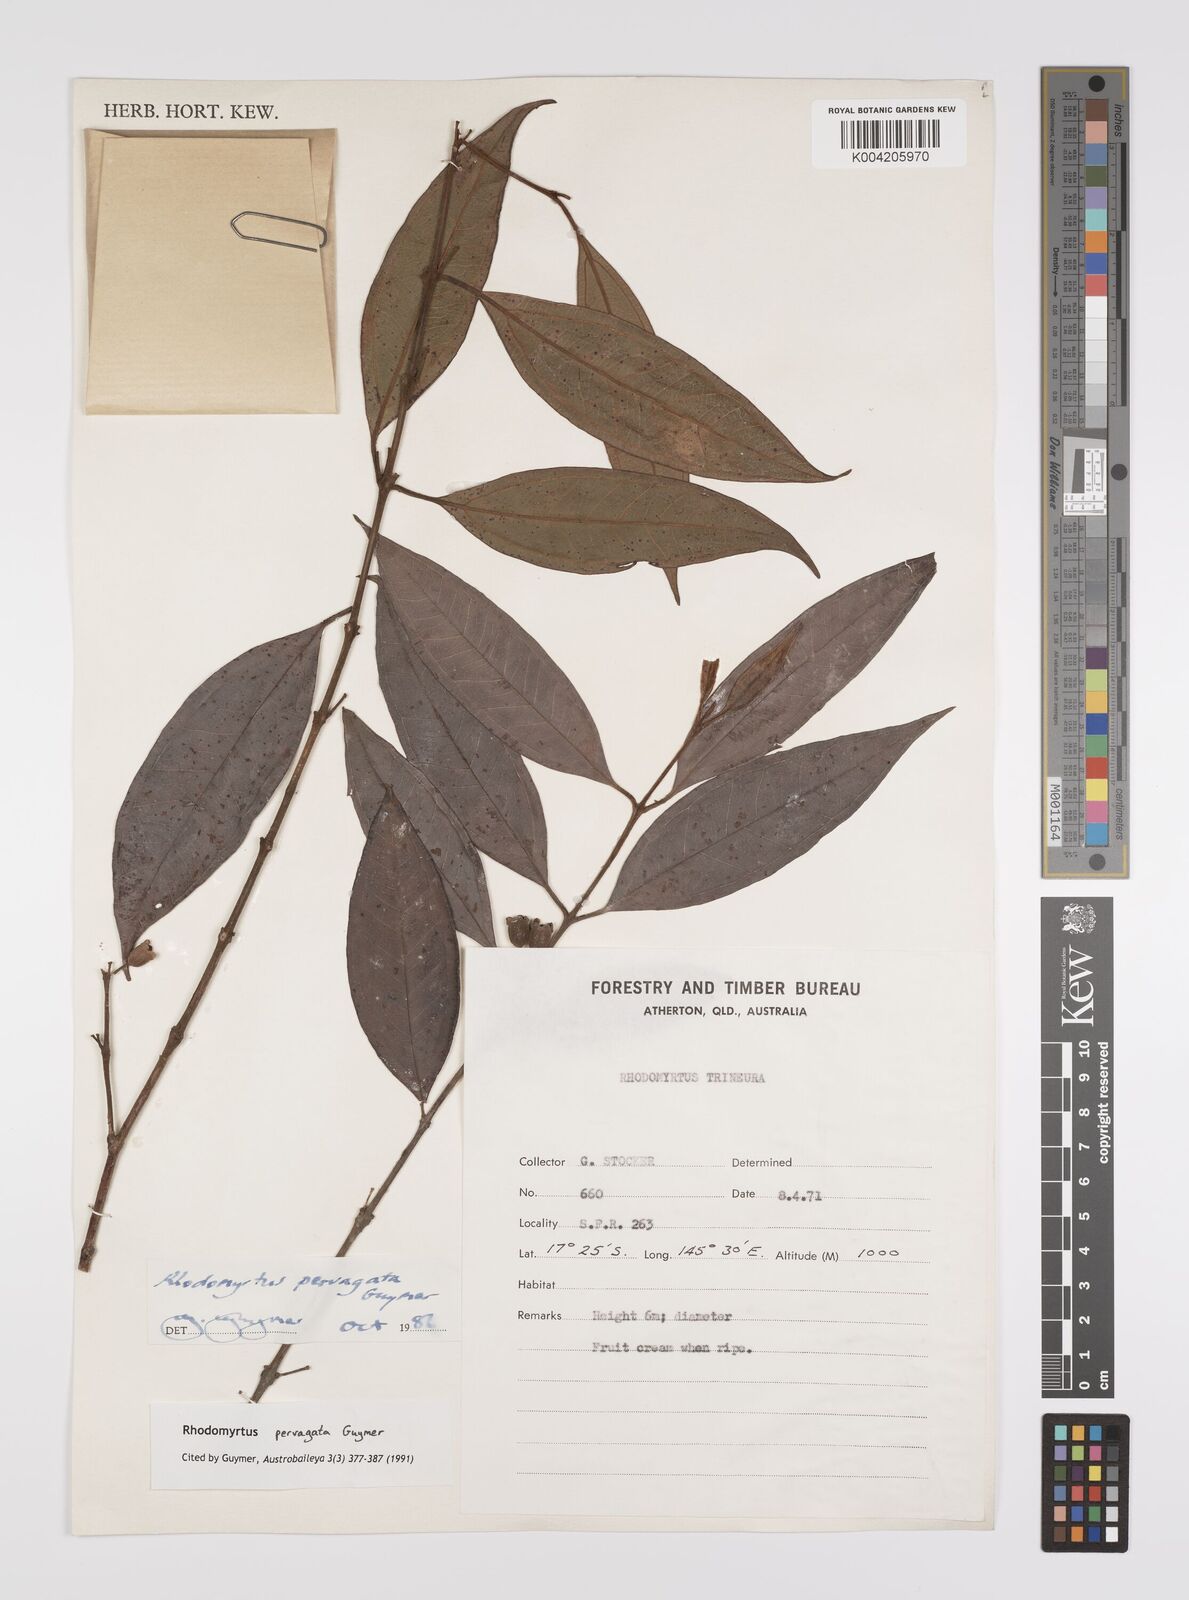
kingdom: Plantae
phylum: Tracheophyta
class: Magnoliopsida
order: Myrtales
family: Myrtaceae
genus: Rhodomyrtus
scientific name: Rhodomyrtus pervagata
